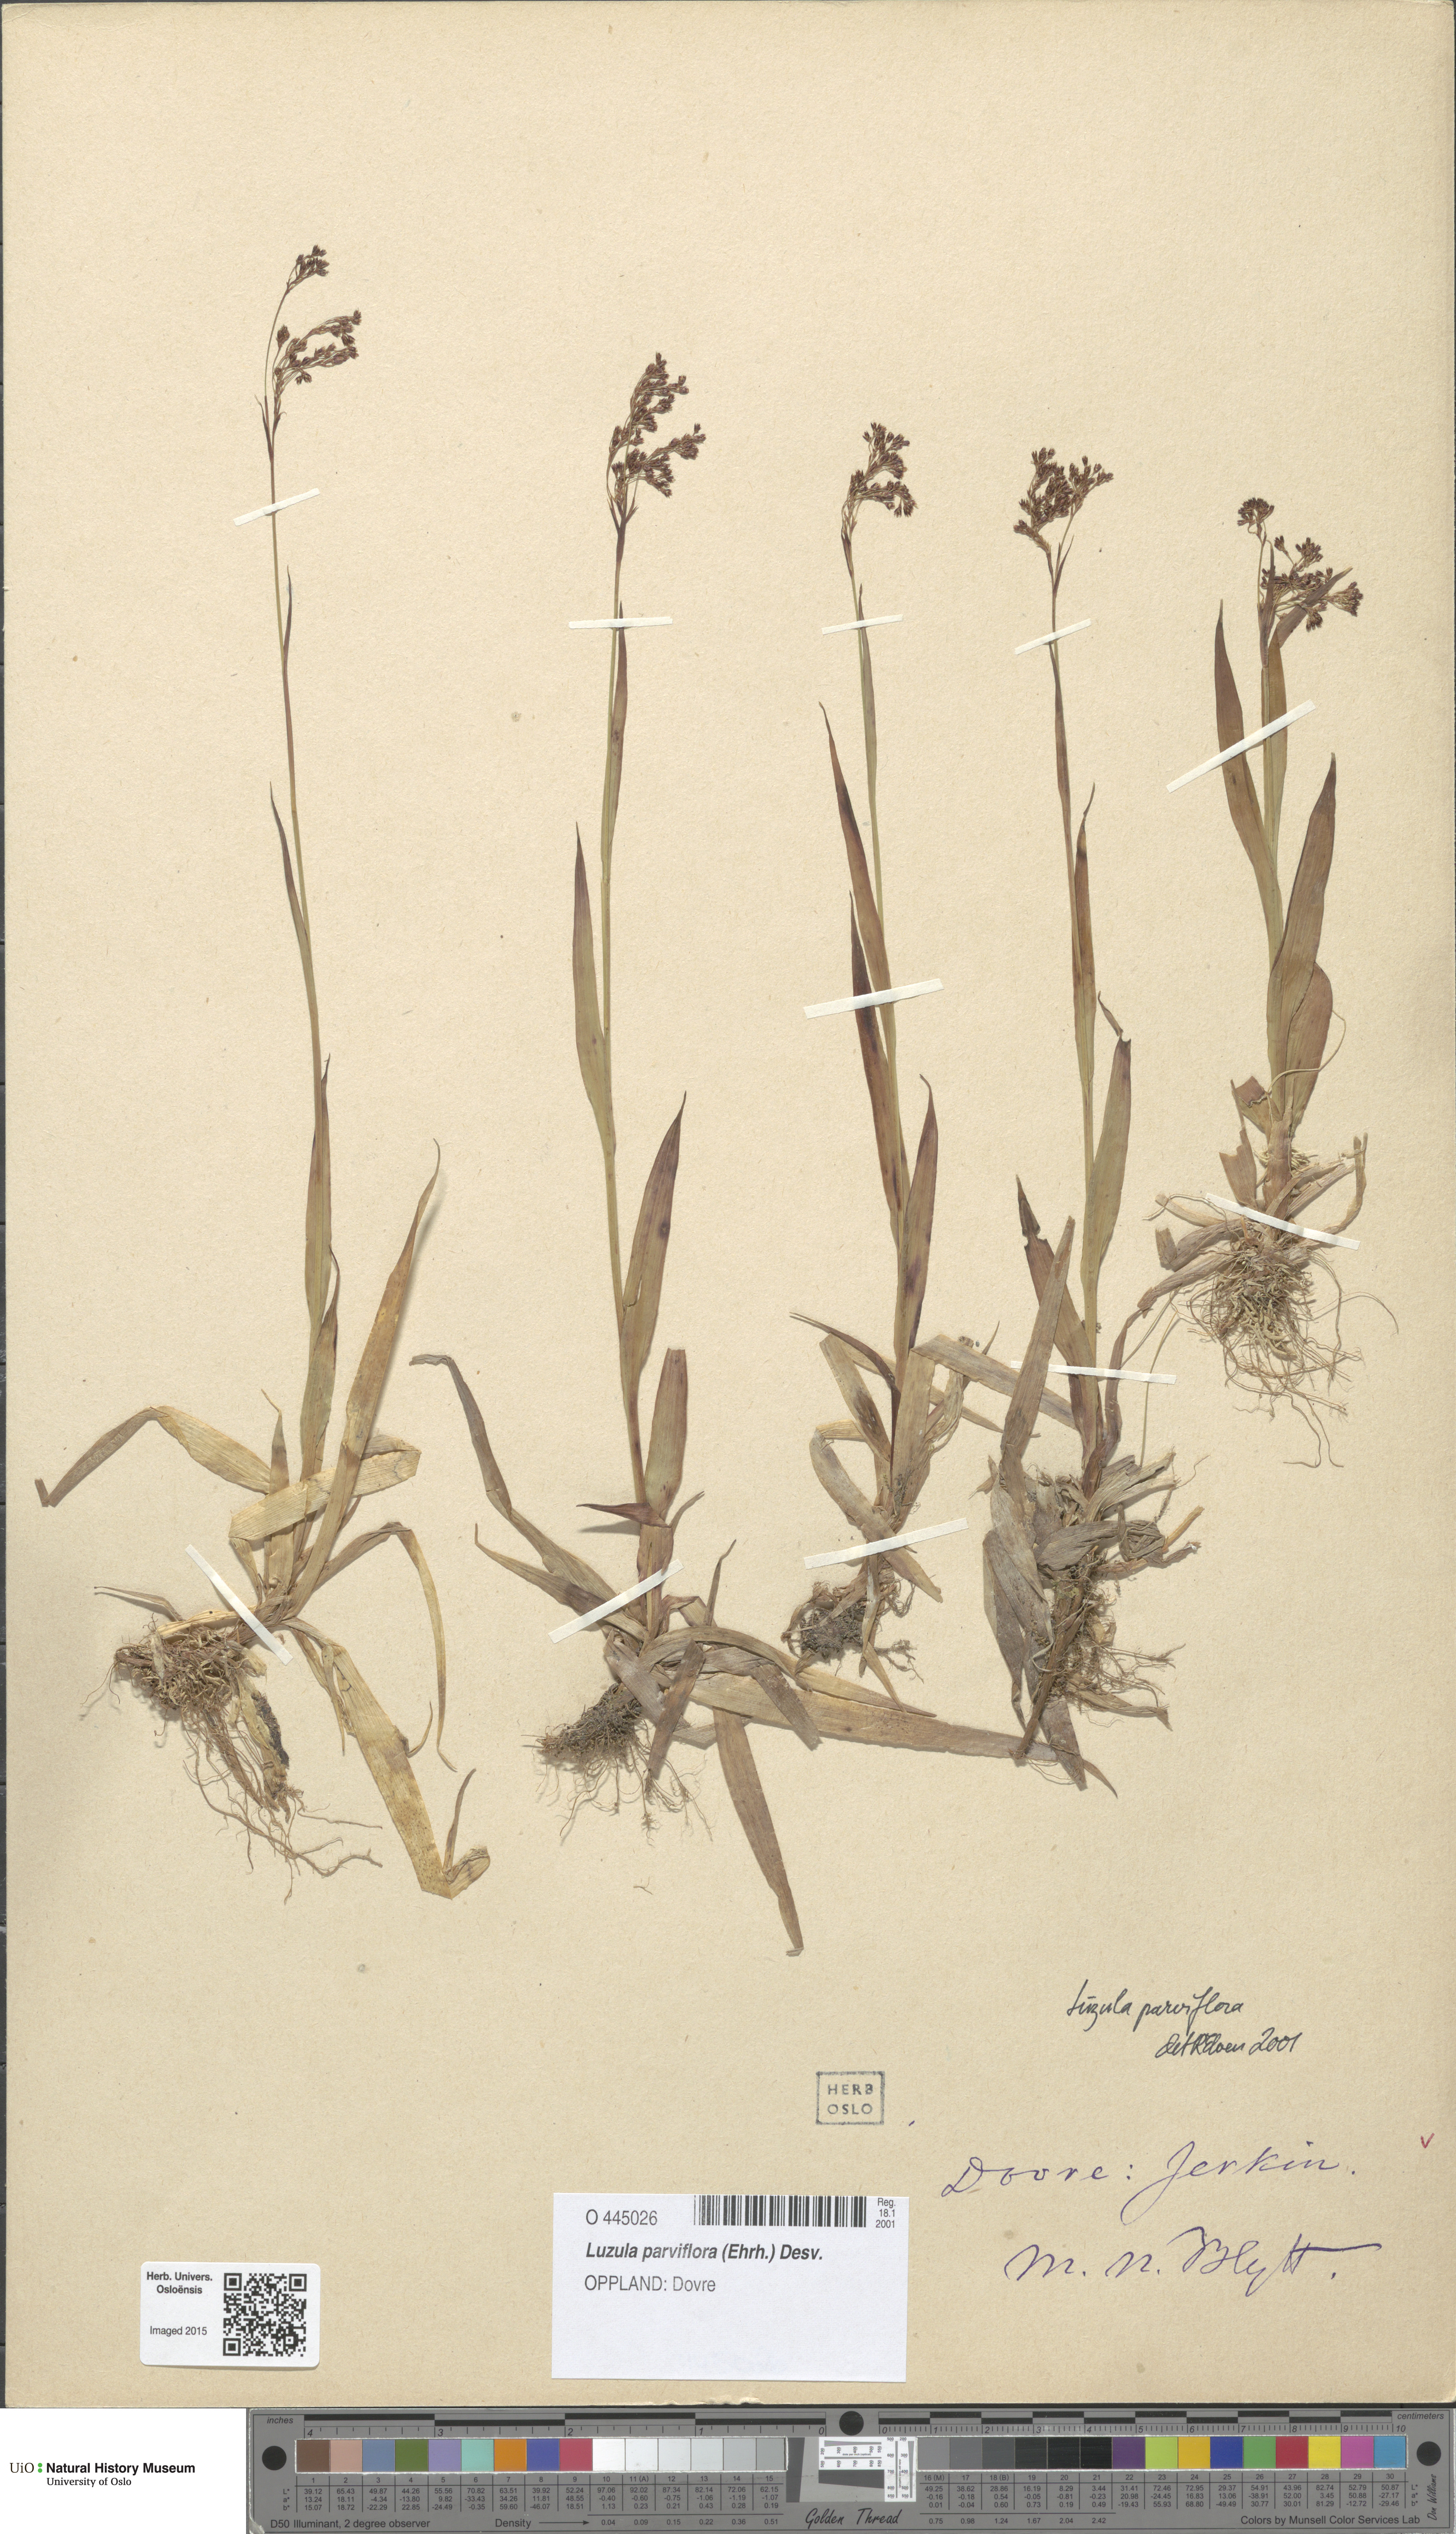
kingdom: Plantae
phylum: Tracheophyta
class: Liliopsida
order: Poales
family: Juncaceae
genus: Luzula
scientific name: Luzula parviflora
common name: Millet woodrush
